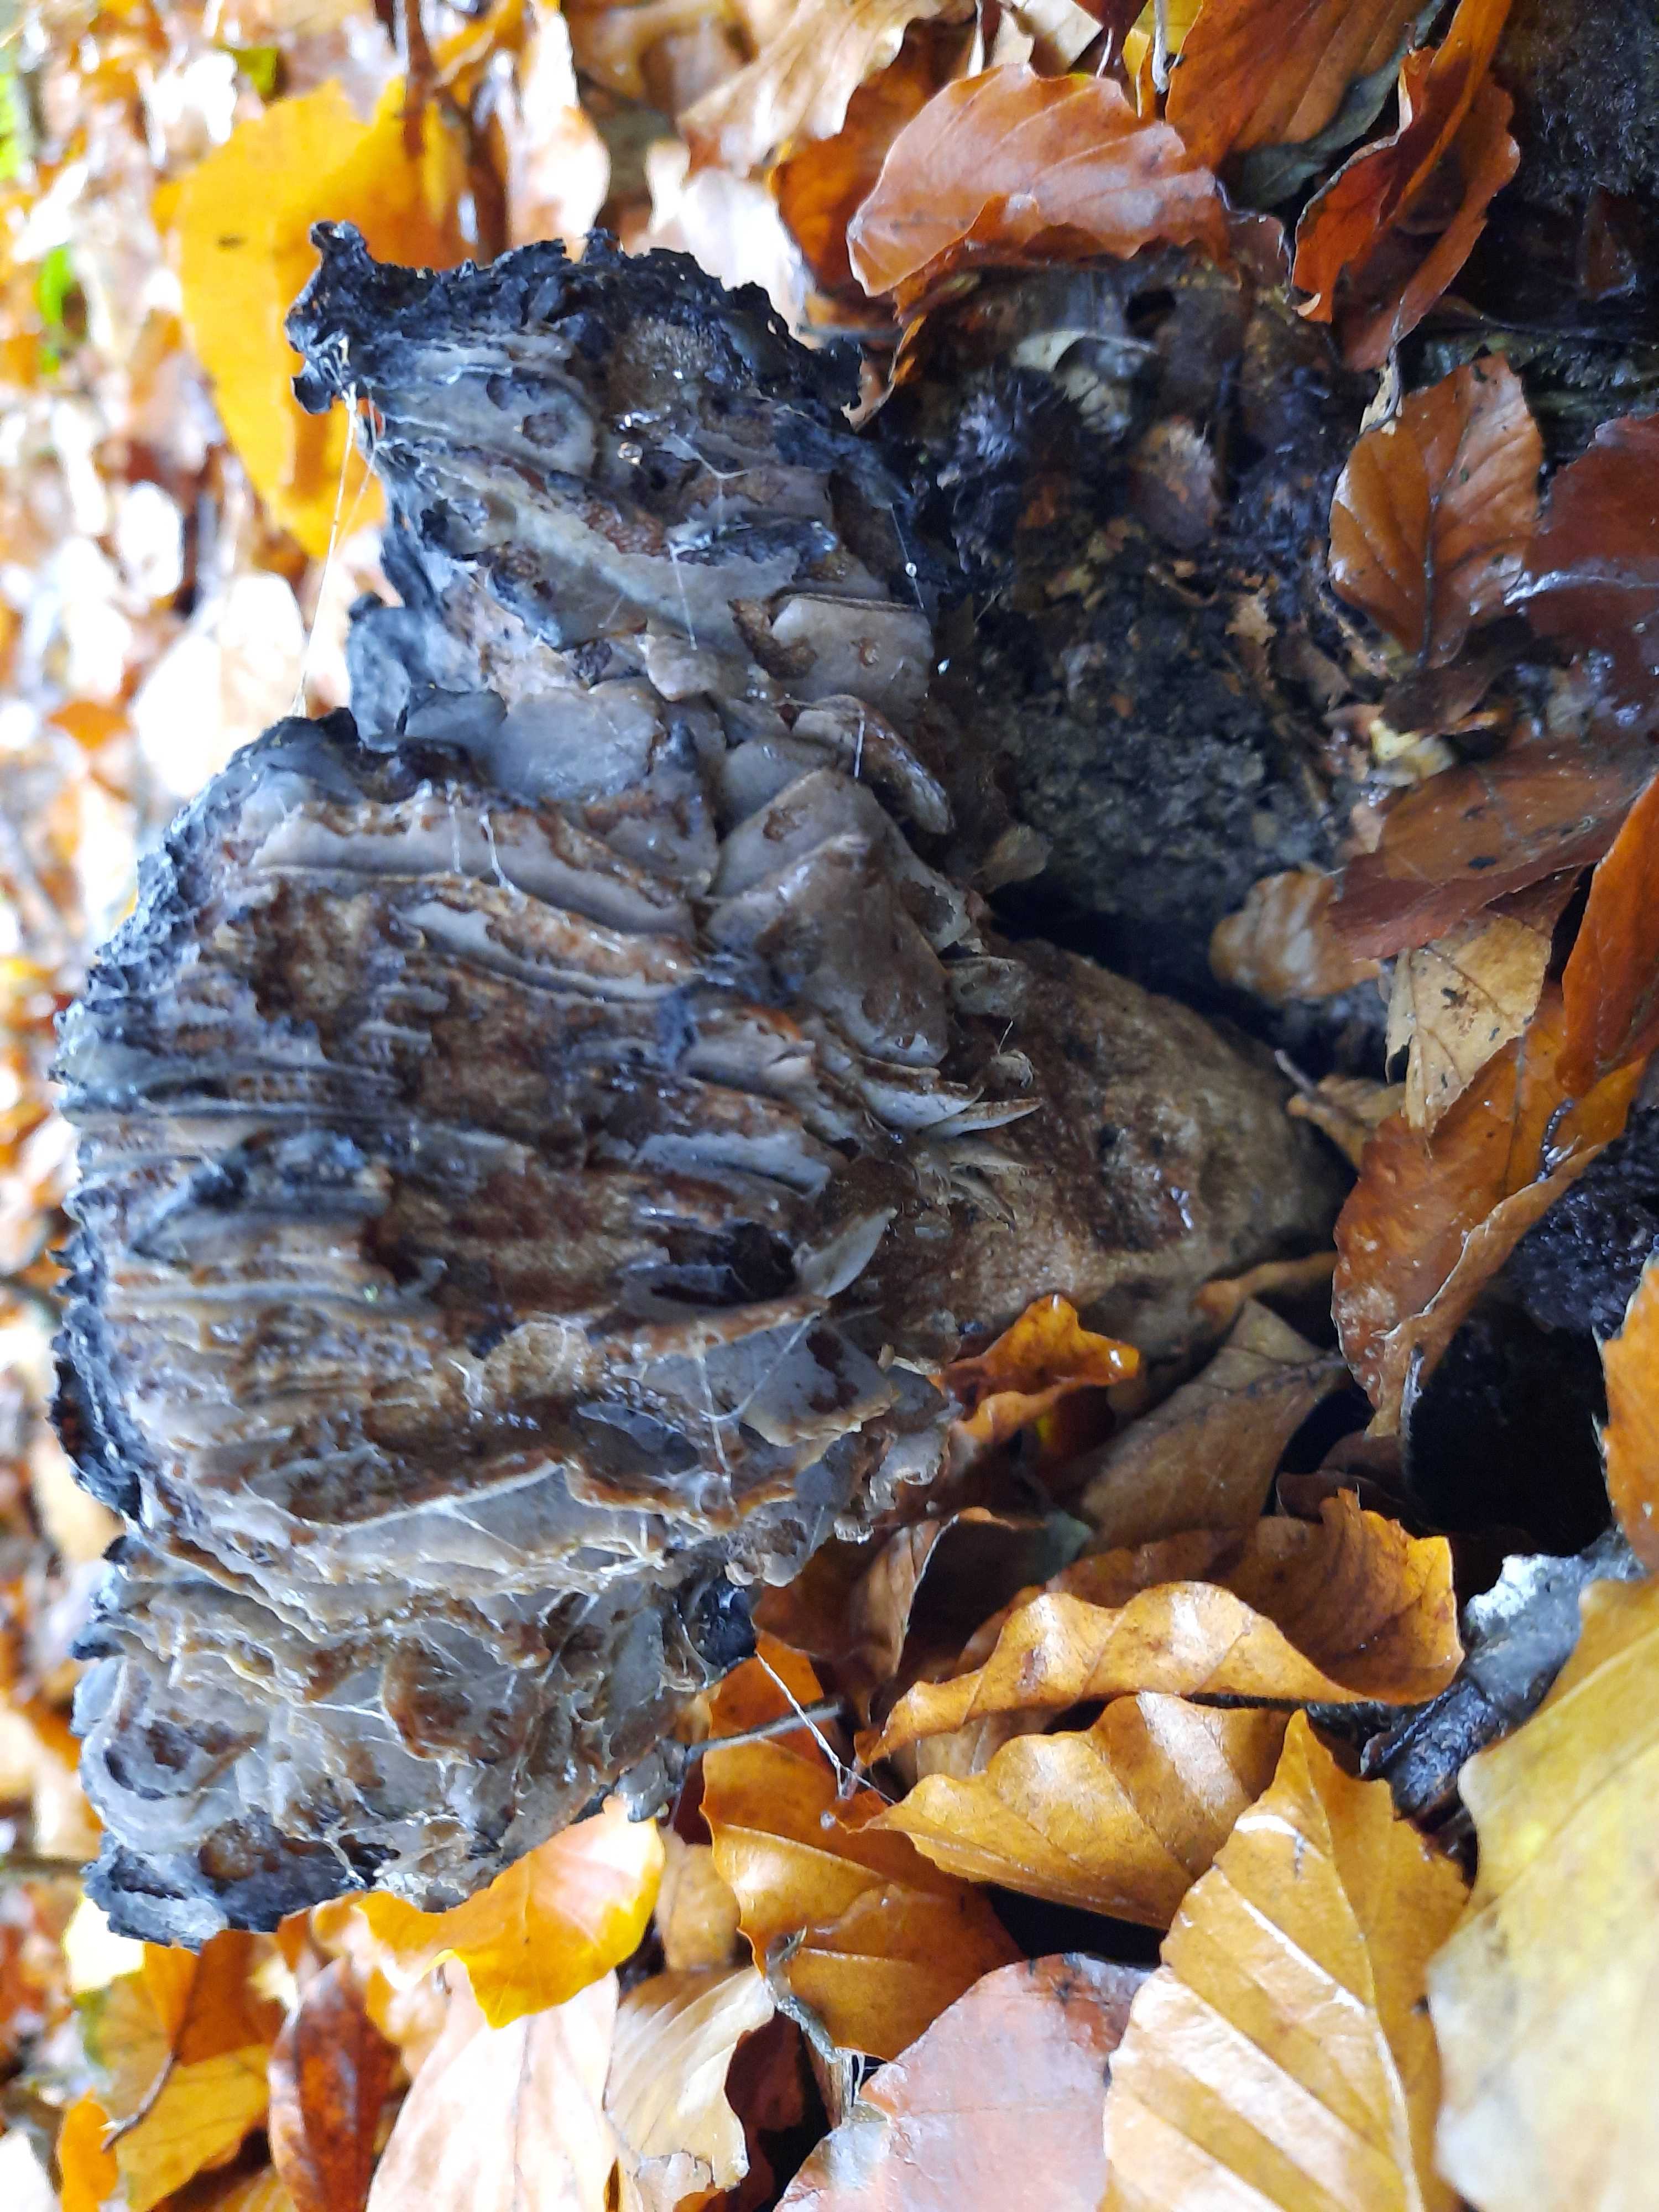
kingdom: Fungi
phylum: Basidiomycota
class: Agaricomycetes
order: Russulales
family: Russulaceae
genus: Russula
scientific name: Russula adusta
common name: sværtende skørhat
